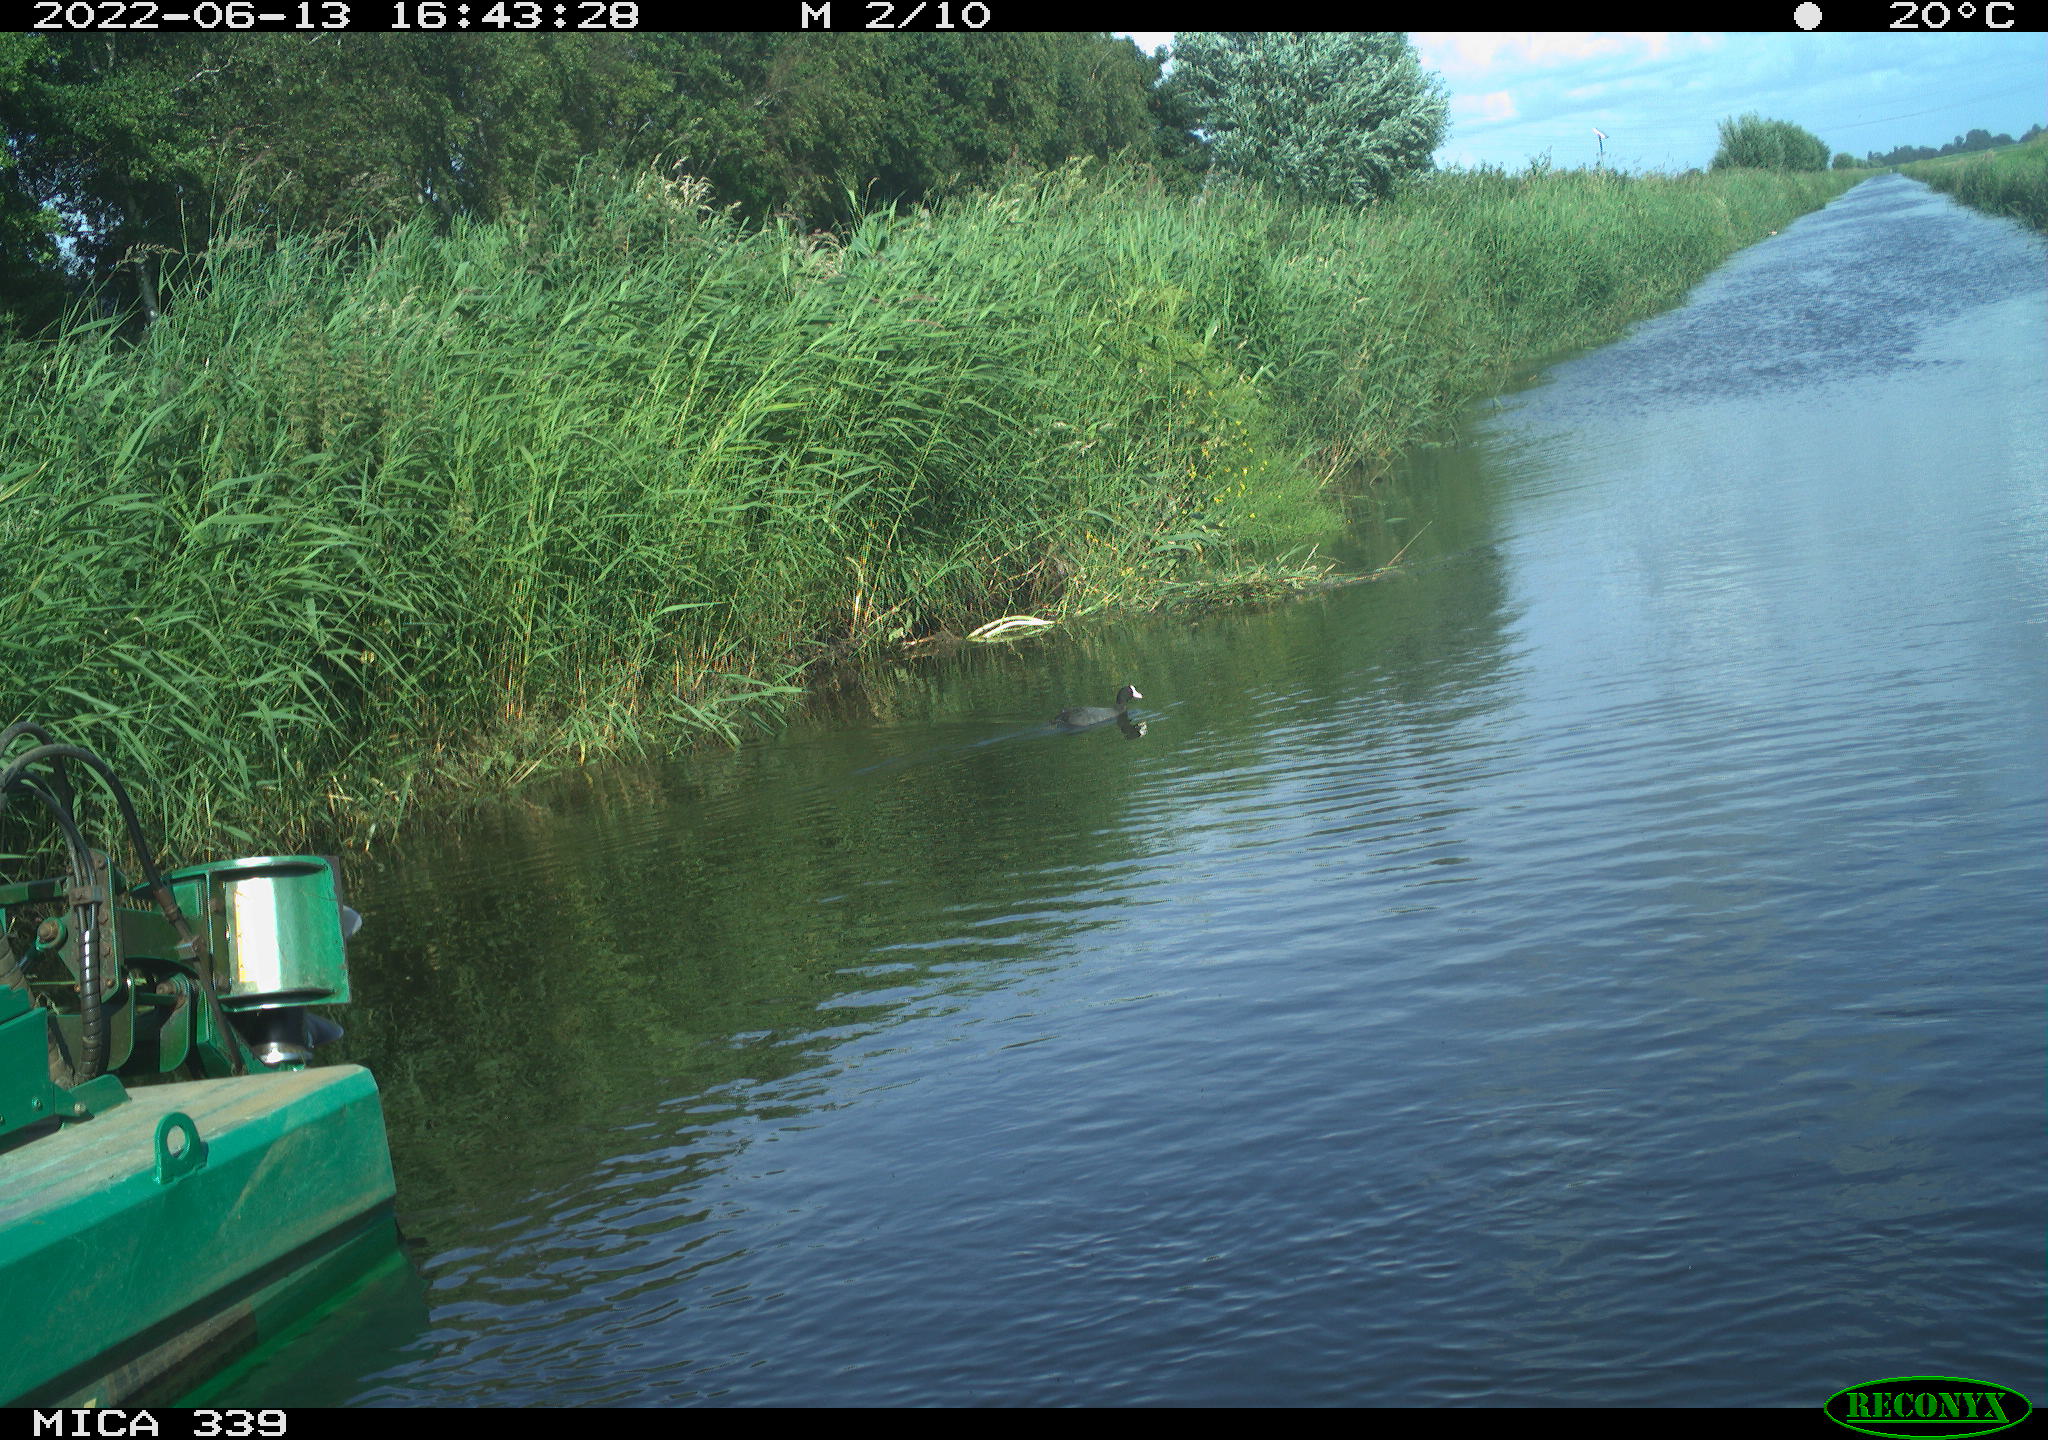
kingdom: Animalia
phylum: Chordata
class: Aves
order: Gruiformes
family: Rallidae
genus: Fulica
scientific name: Fulica atra
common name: Eurasian coot
